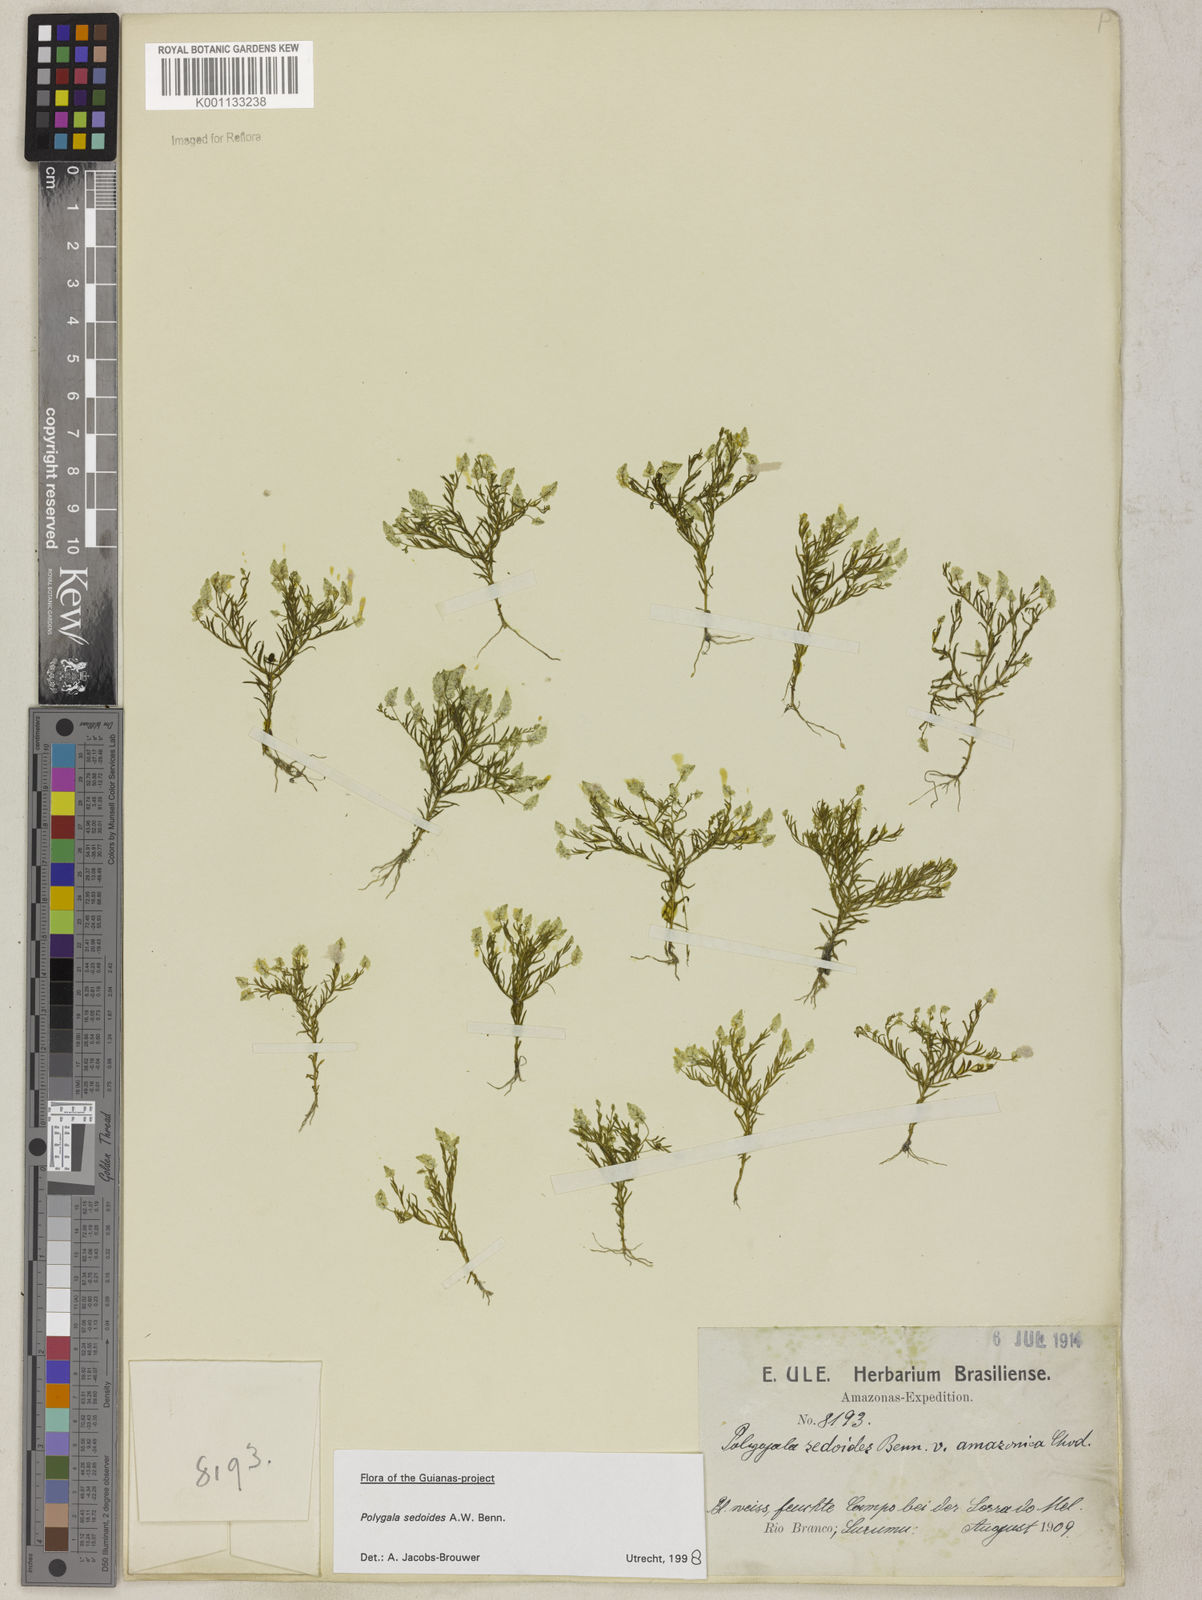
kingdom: Plantae
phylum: Tracheophyta
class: Magnoliopsida
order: Fabales
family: Polygalaceae
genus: Polygala
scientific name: Polygala sedoides
